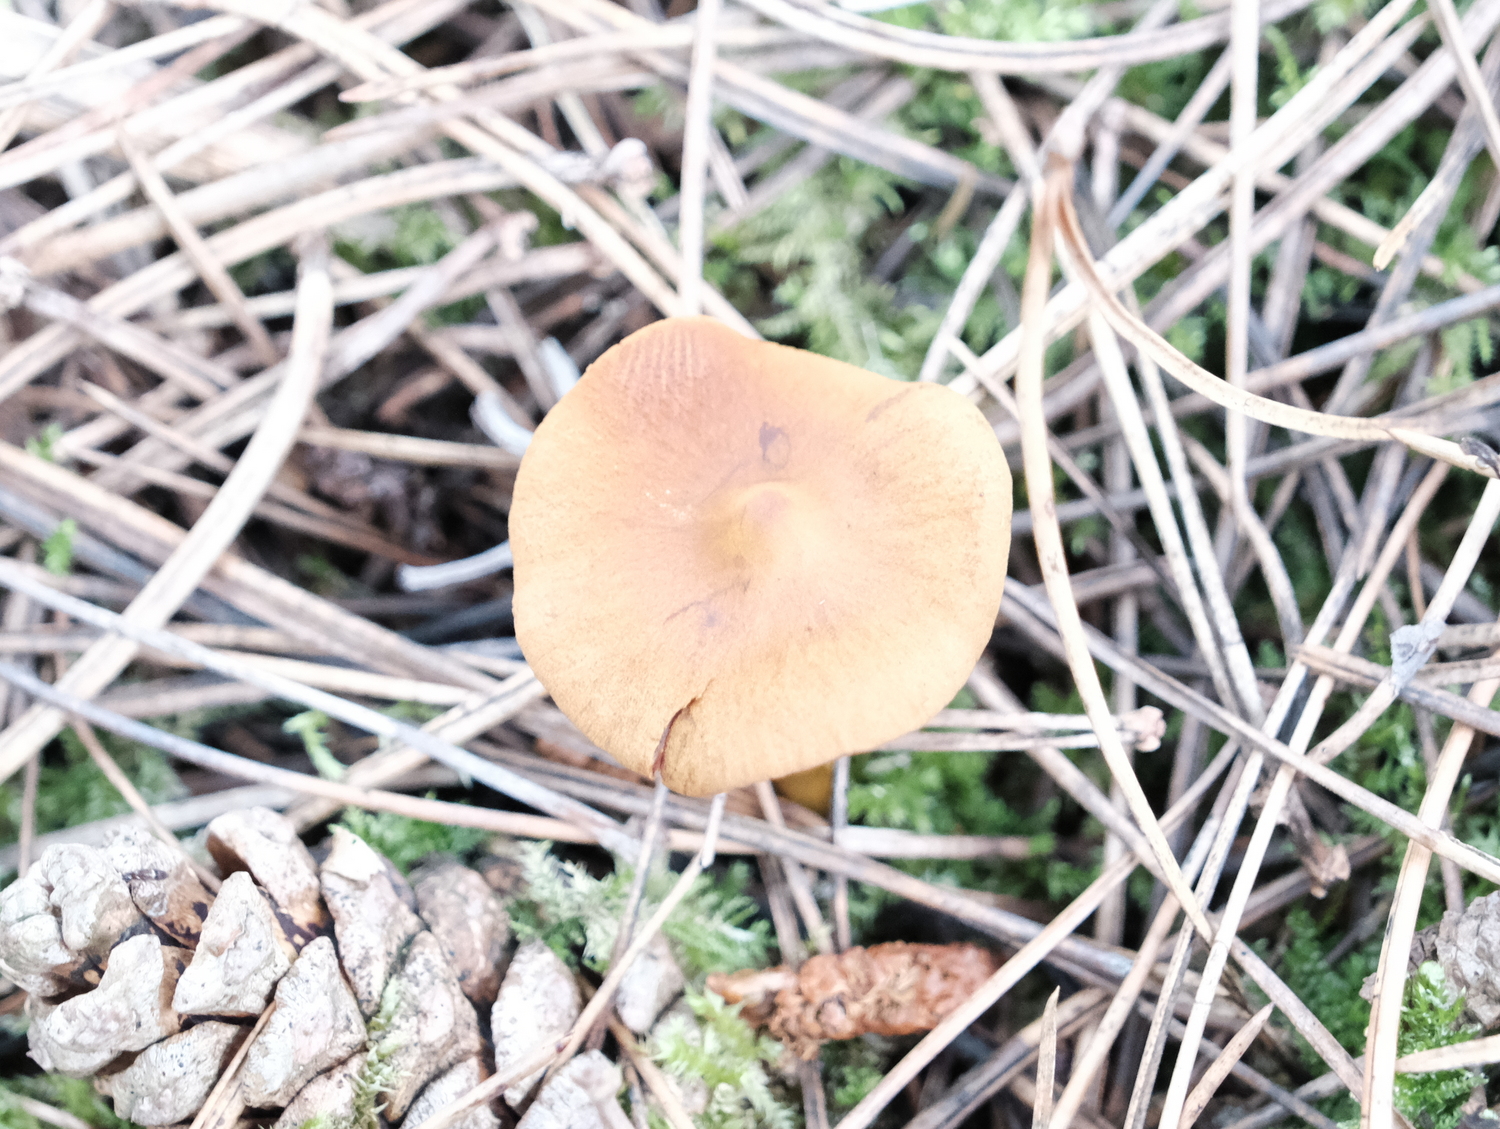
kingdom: Fungi
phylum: Basidiomycota
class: Agaricomycetes
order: Agaricales
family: Cortinariaceae
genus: Cortinarius
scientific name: Cortinarius
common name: cinnoberbladet slørhat
